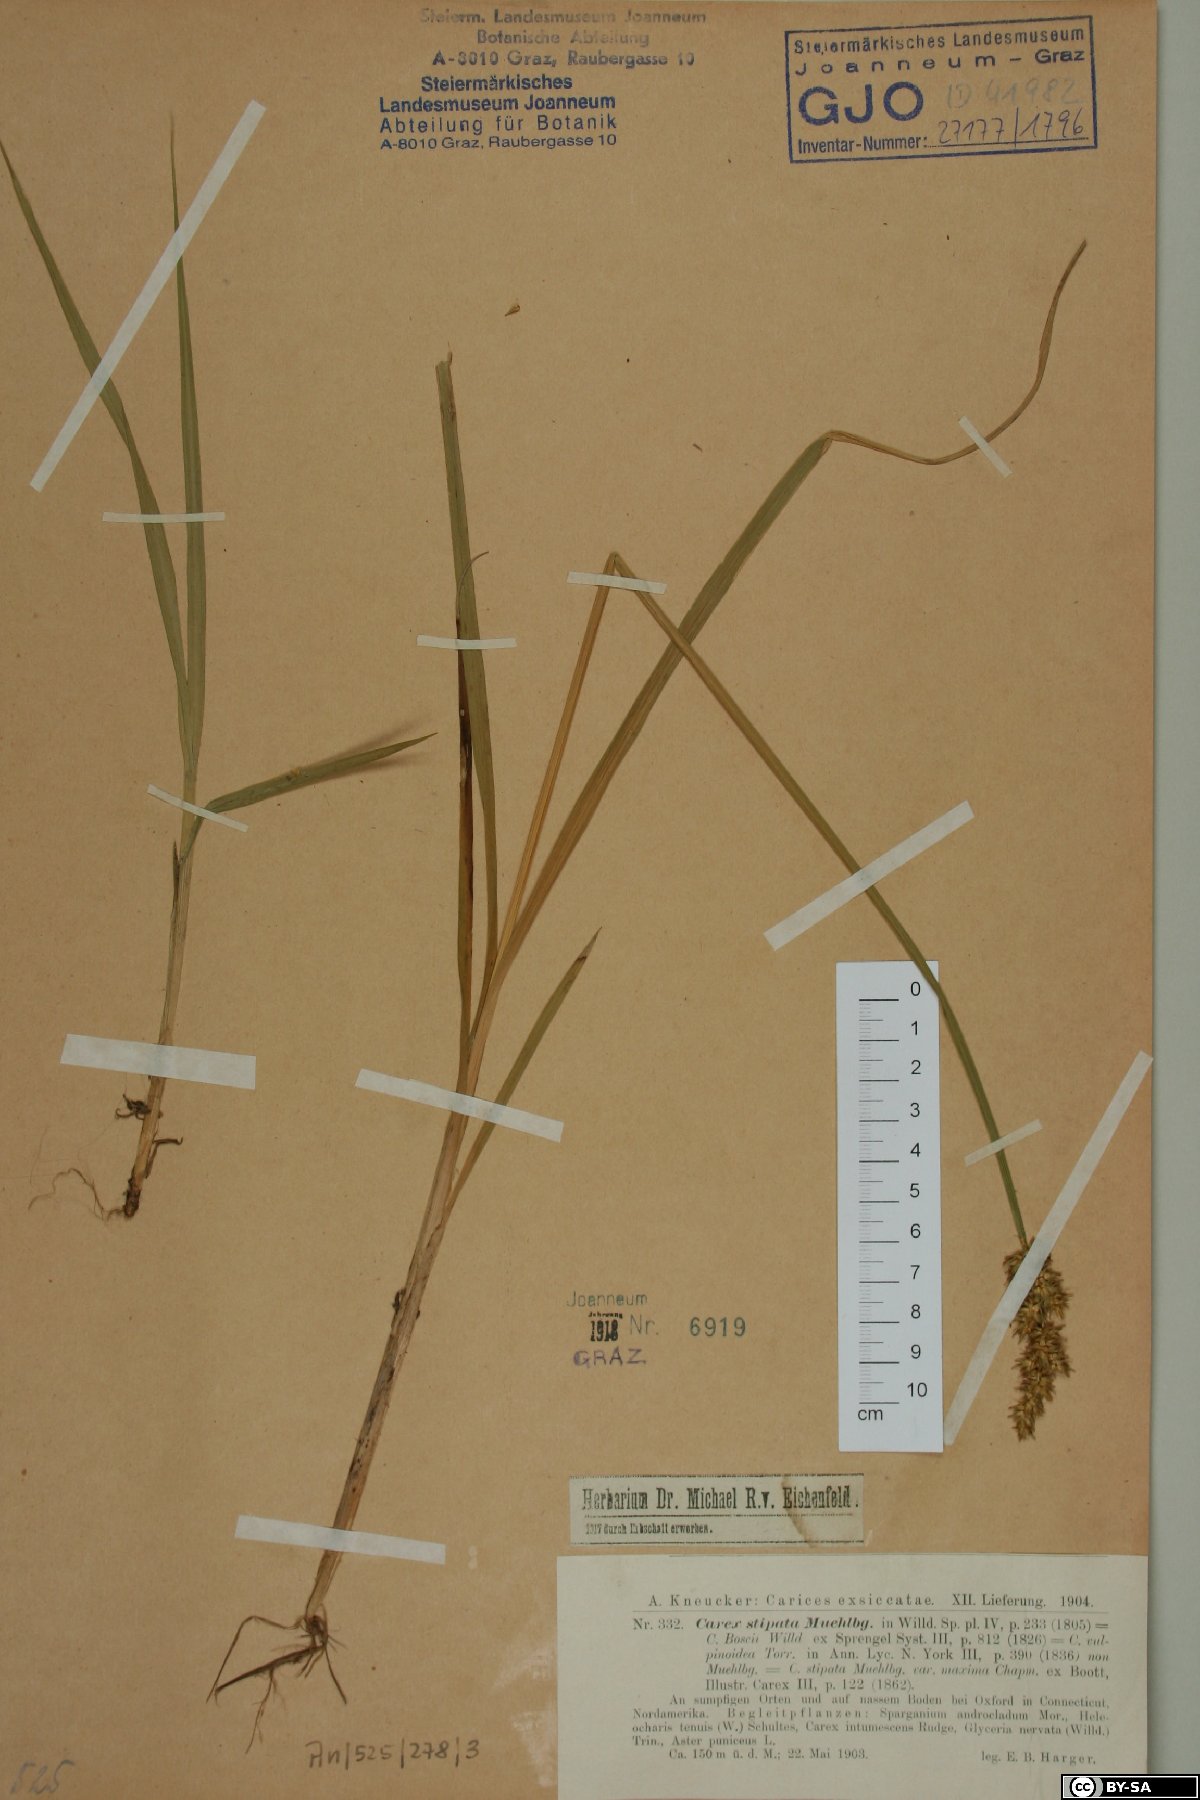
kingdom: Plantae
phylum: Tracheophyta
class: Liliopsida
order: Poales
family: Cyperaceae
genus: Carex
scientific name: Carex stipata
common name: Awl-fruited sedge
